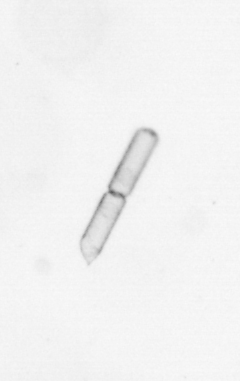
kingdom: Chromista
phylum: Ochrophyta
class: Bacillariophyceae
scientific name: Bacillariophyceae
